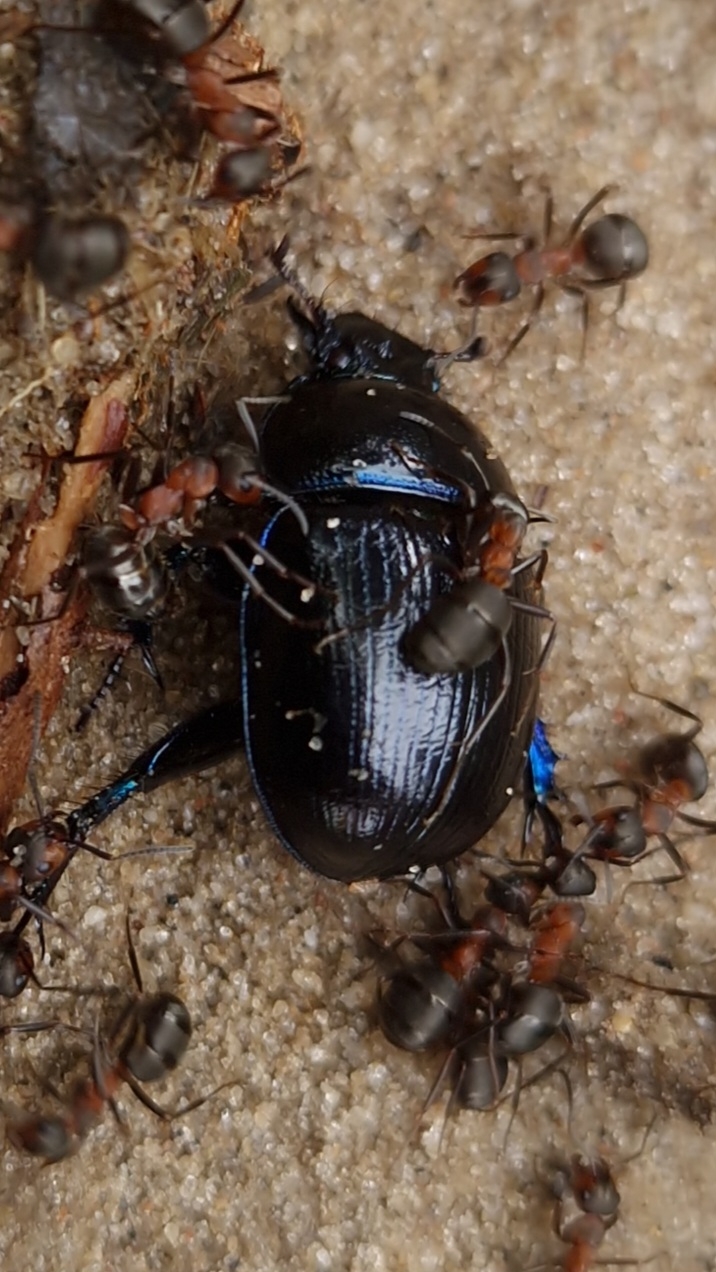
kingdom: Animalia
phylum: Arthropoda
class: Insecta
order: Coleoptera
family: Geotrupidae
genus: Anoplotrupes
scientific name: Anoplotrupes stercorosus
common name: Skovskarnbasse
